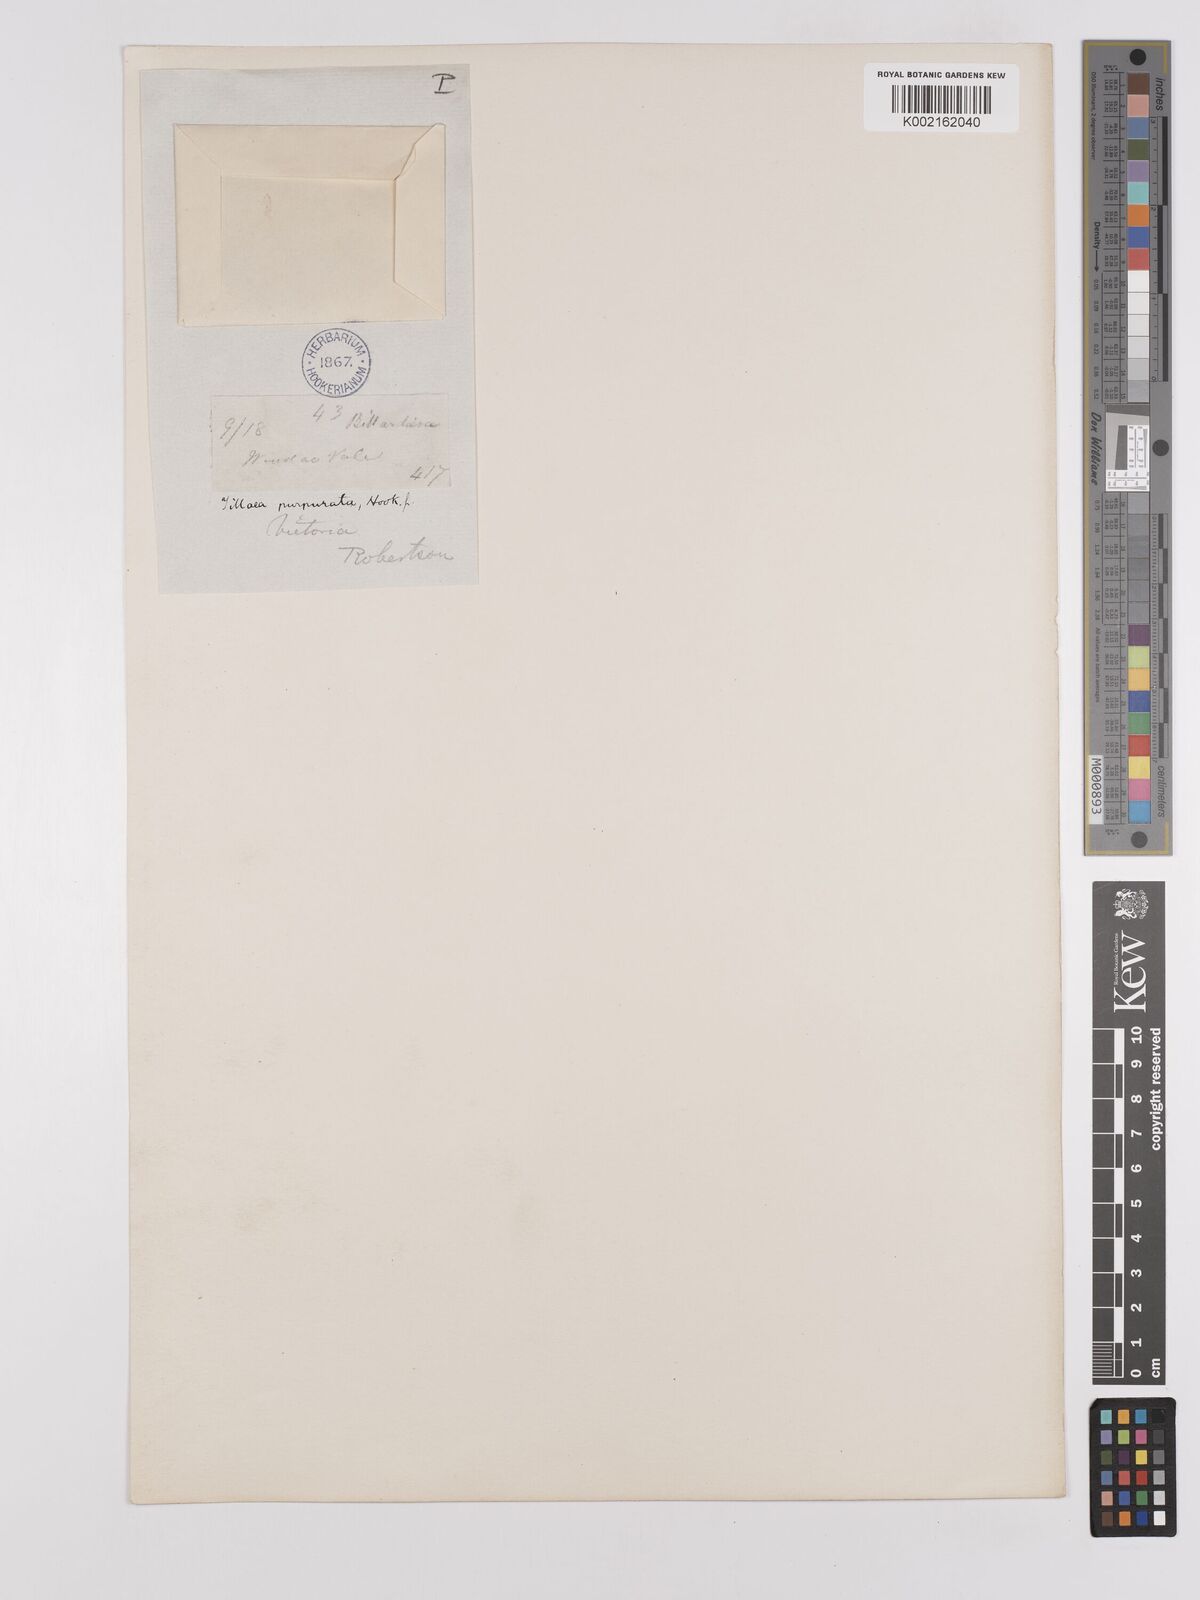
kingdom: Plantae
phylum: Tracheophyta
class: Magnoliopsida
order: Saxifragales
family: Crassulaceae
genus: Crassula
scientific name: Crassula peduncularis
